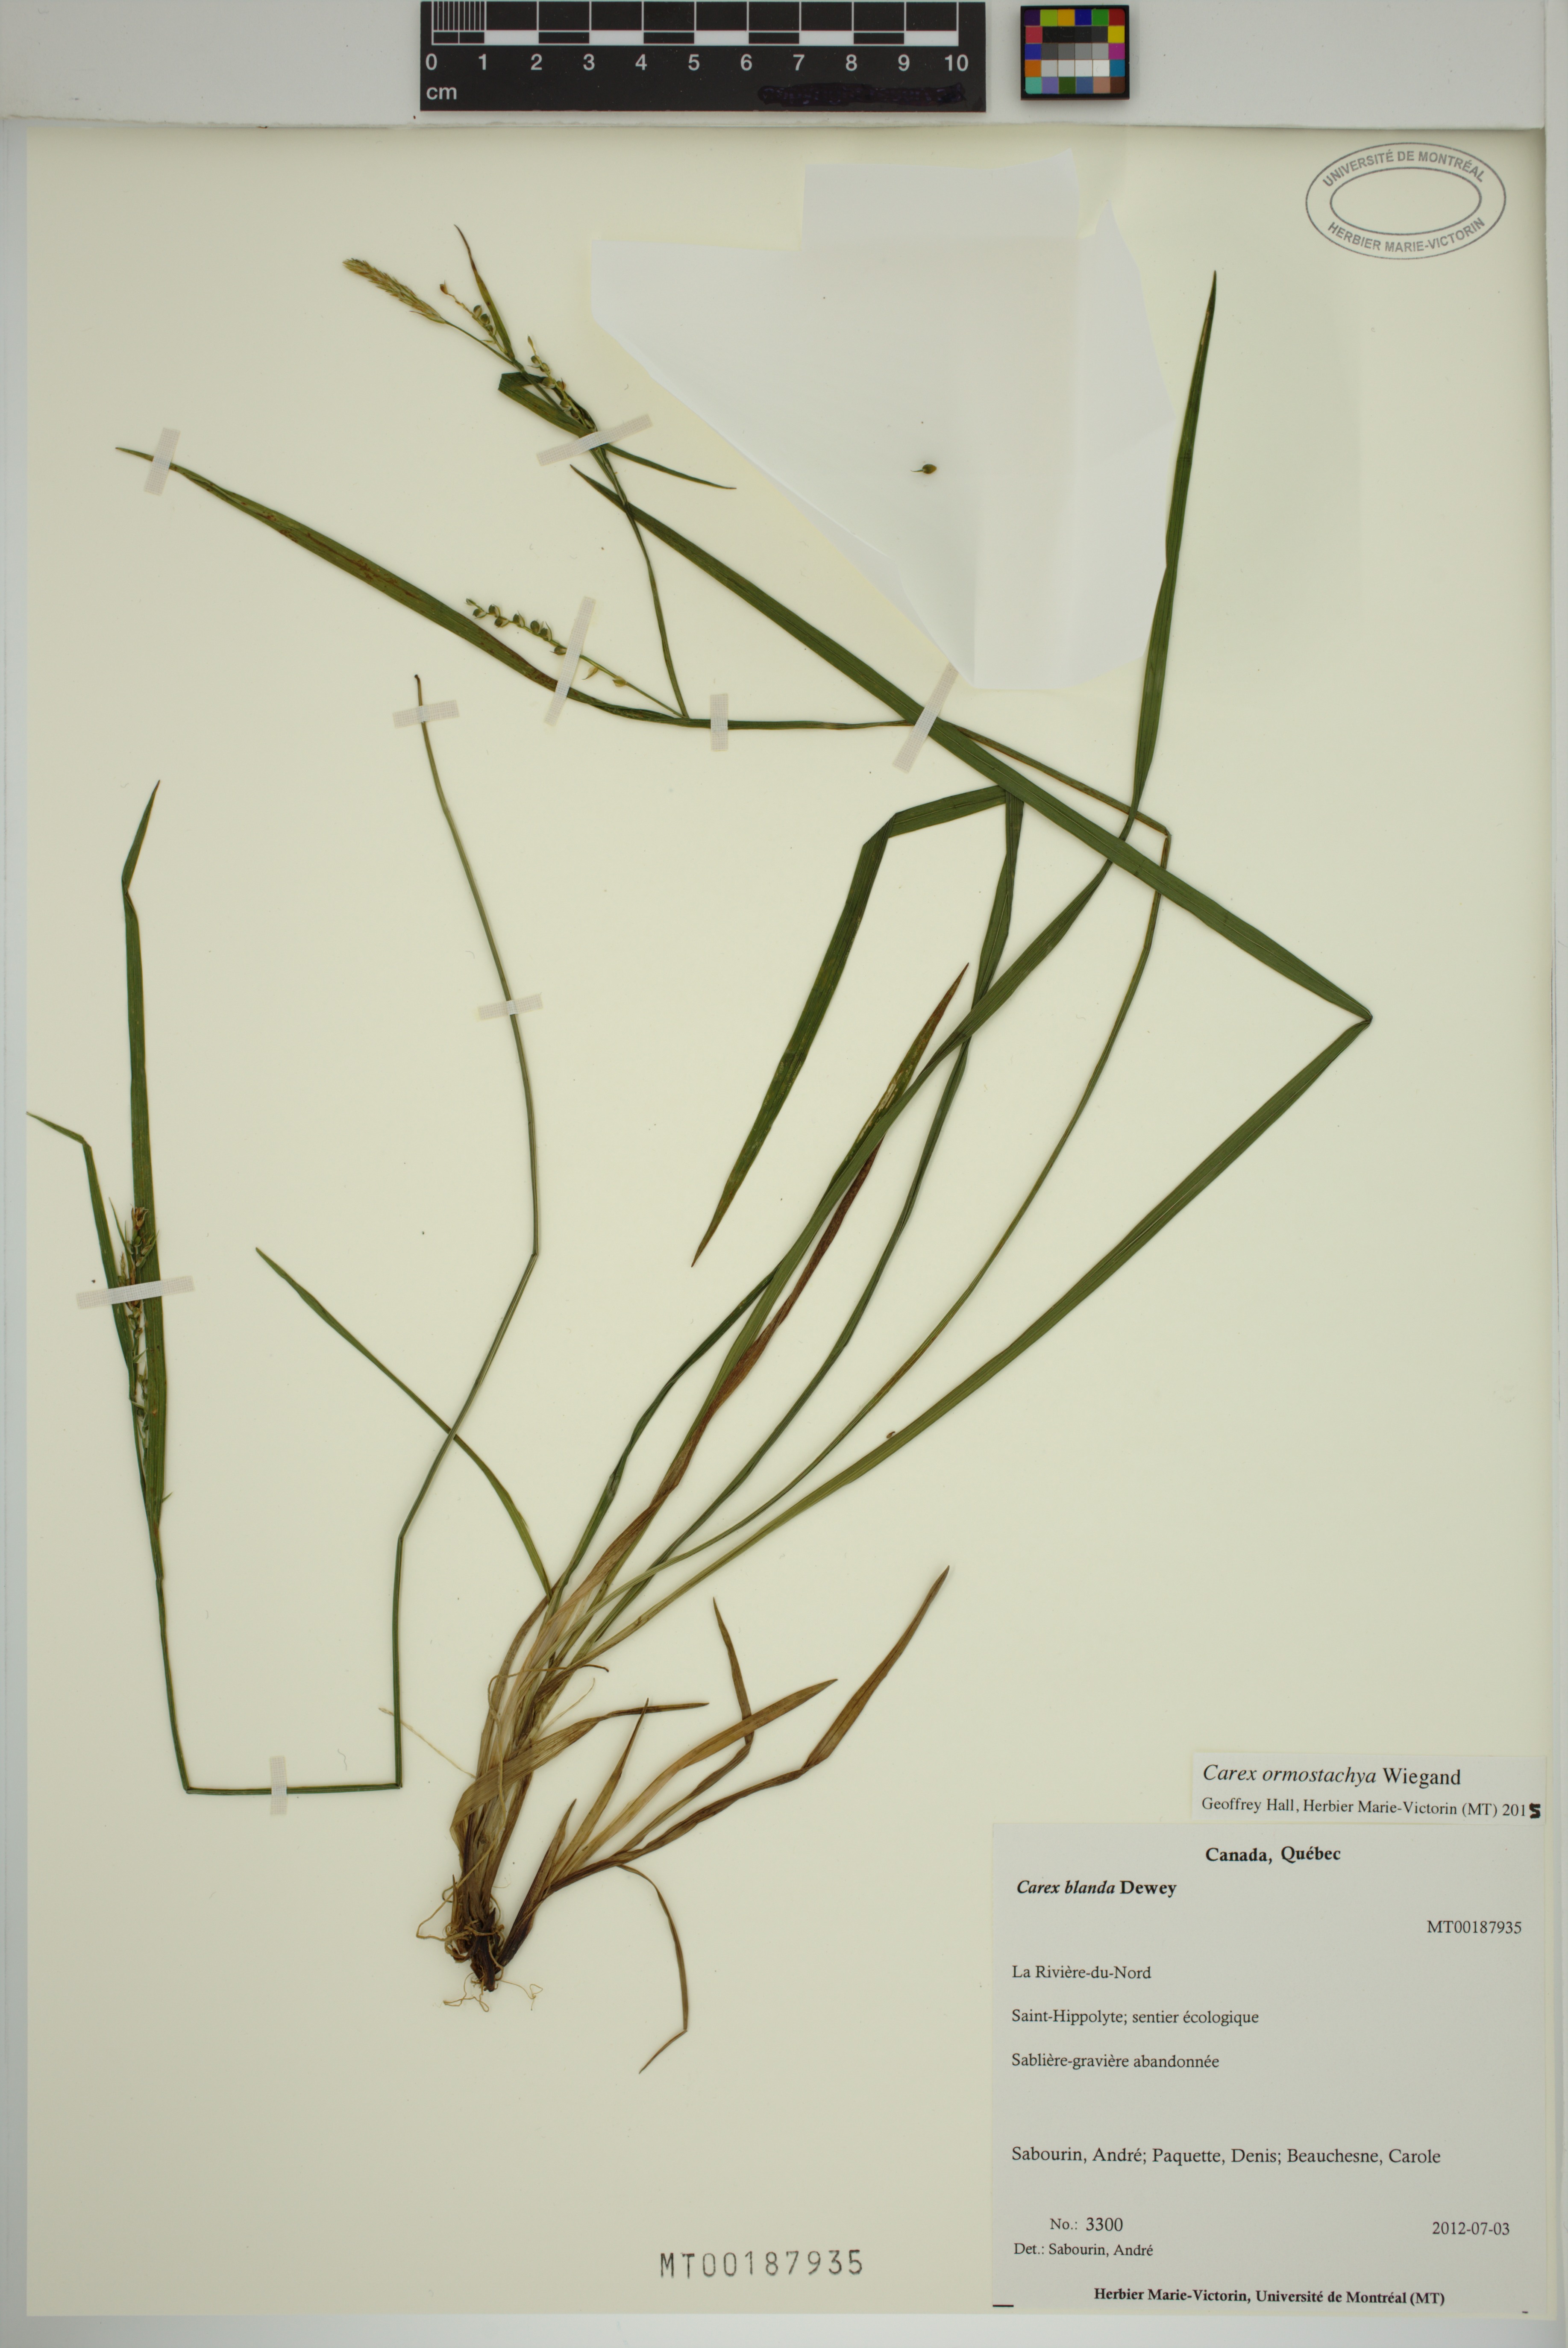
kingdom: Plantae
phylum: Tracheophyta
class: Liliopsida
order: Poales
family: Cyperaceae
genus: Carex
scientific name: Carex ormostachya
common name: Necklace spike sedge
